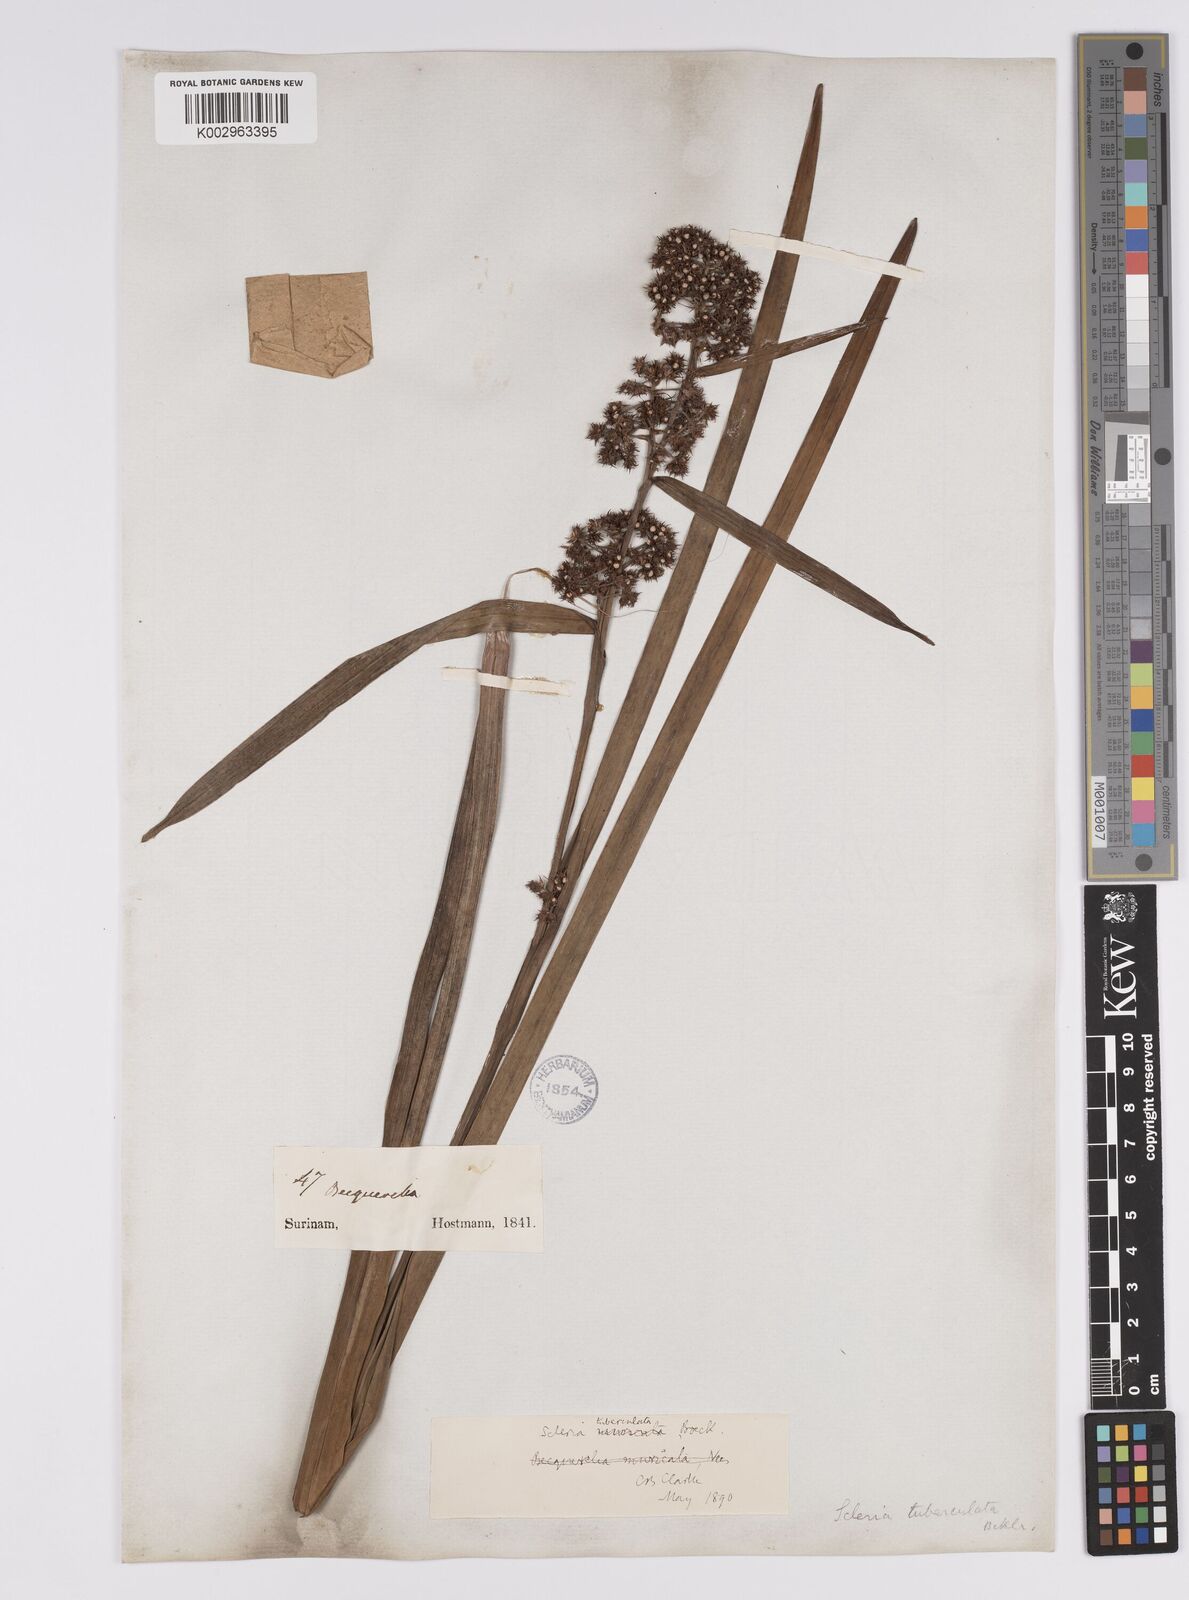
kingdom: Plantae
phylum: Tracheophyta
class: Liliopsida
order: Poales
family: Cyperaceae
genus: Becquerelia
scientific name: Becquerelia tuberculata
